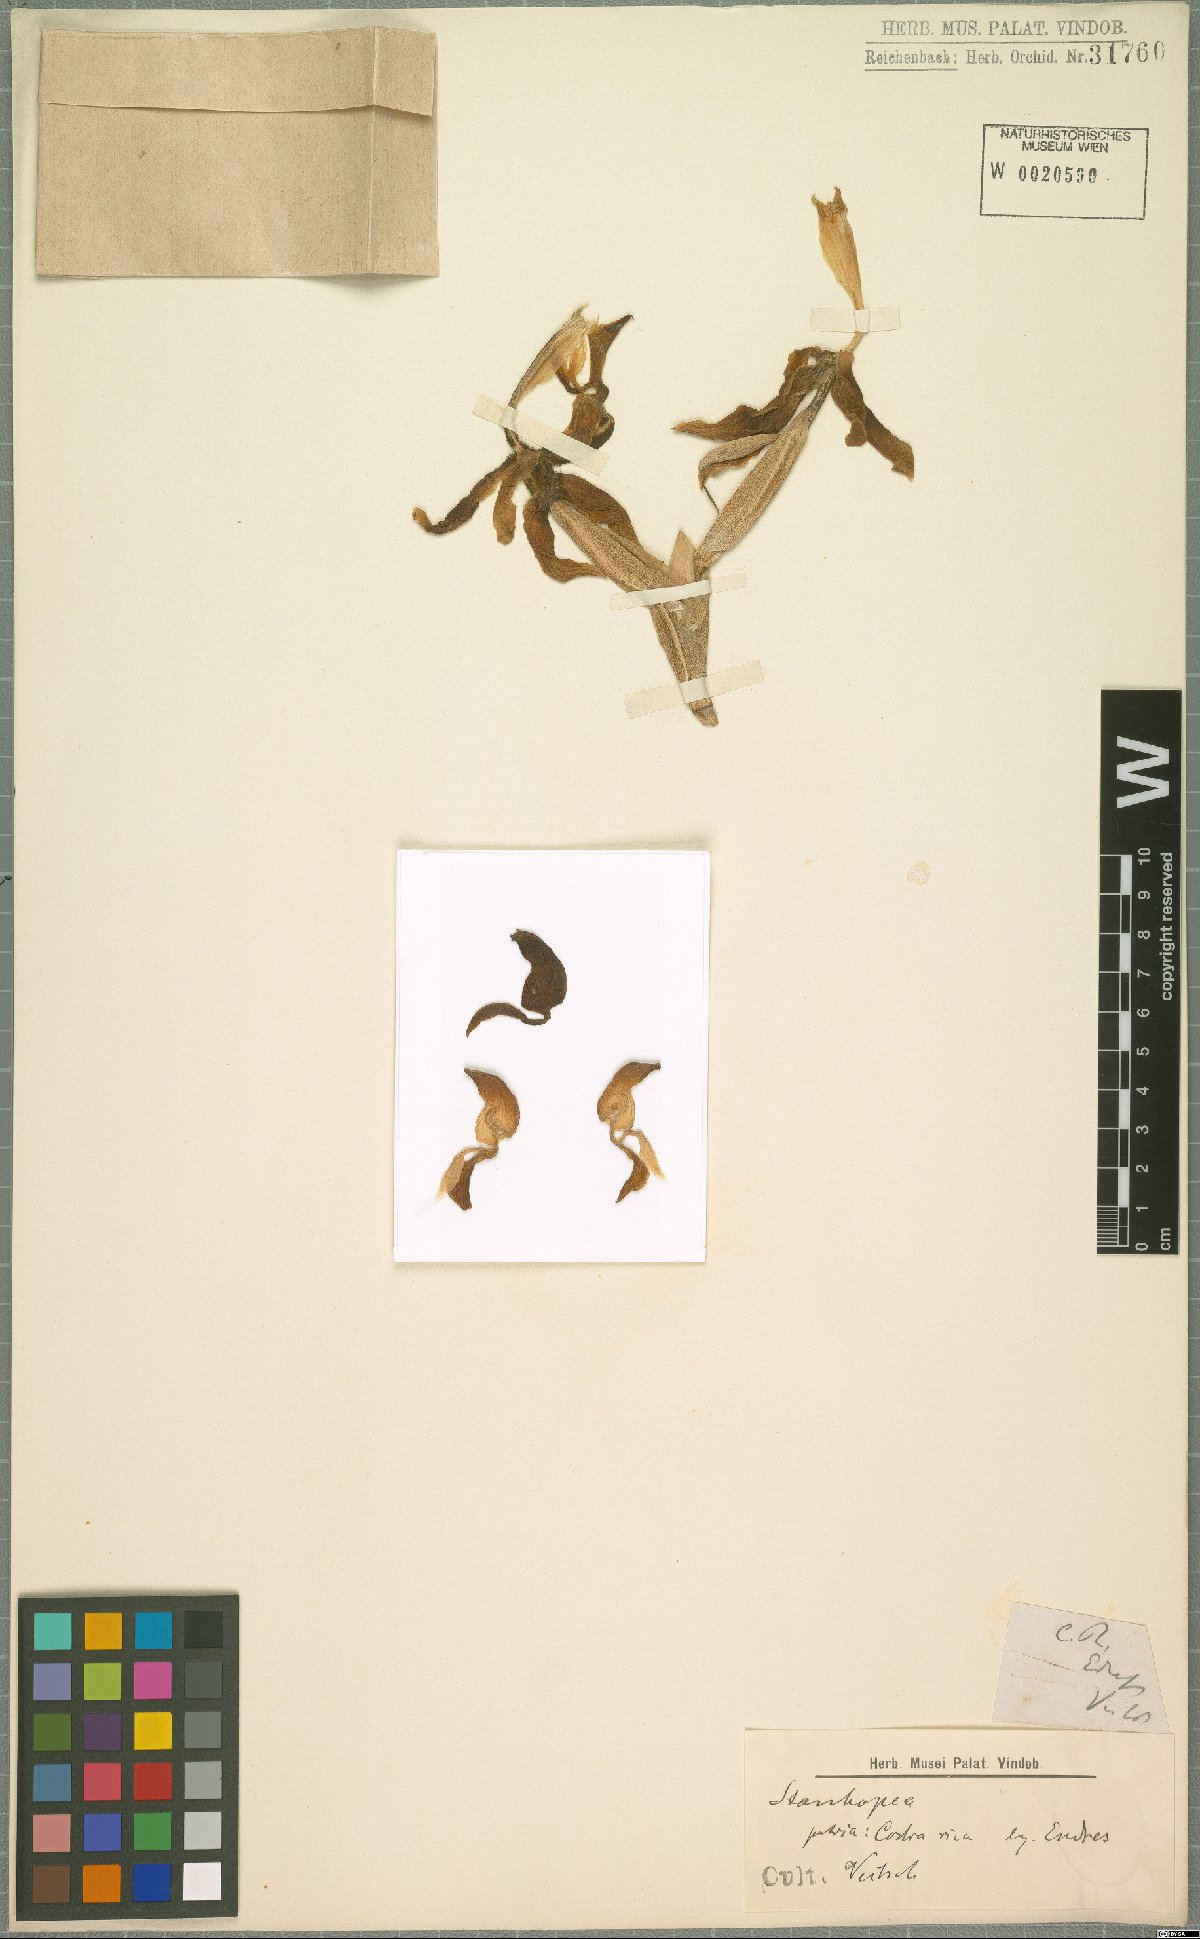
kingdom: Plantae
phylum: Tracheophyta
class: Liliopsida
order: Asparagales
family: Orchidaceae
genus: Stanhopea
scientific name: Stanhopea confusa
